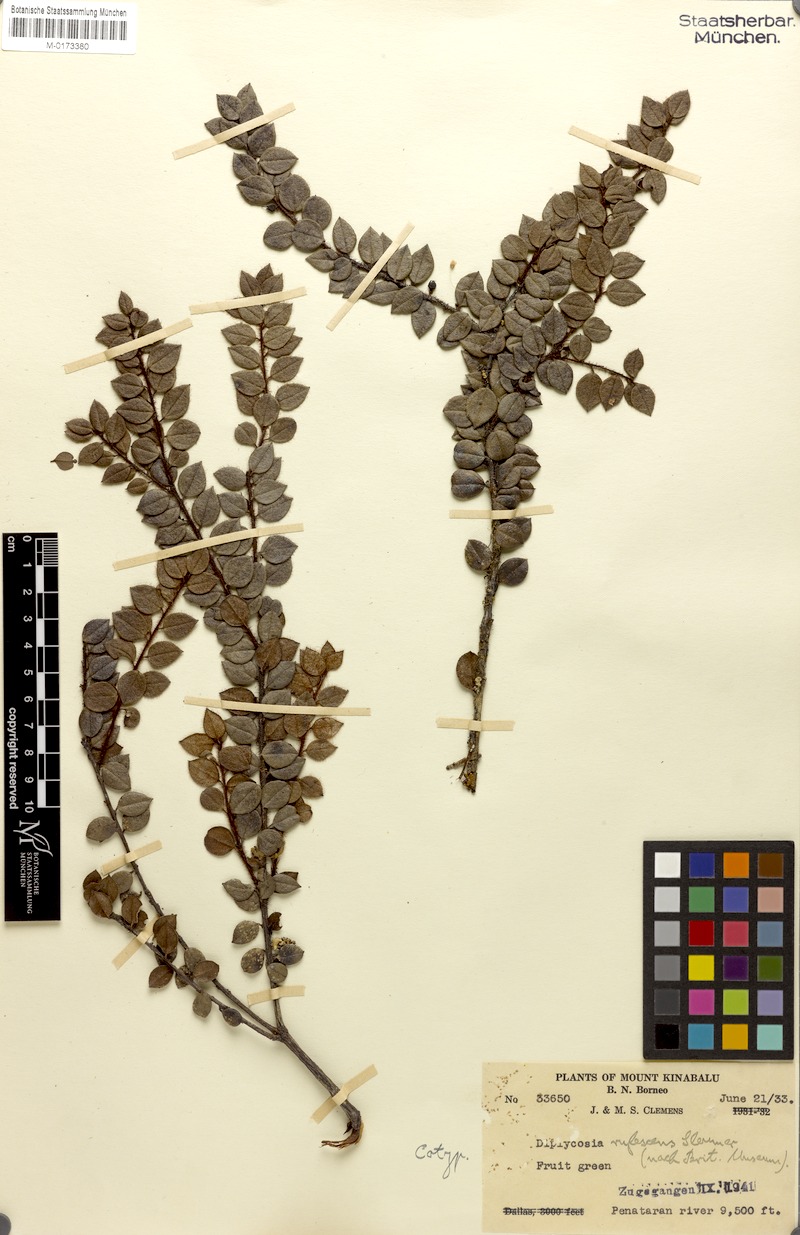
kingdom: Plantae
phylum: Tracheophyta
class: Magnoliopsida
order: Ericales
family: Ericaceae
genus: Gaultheria
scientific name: Gaultheria pseudorufescens
